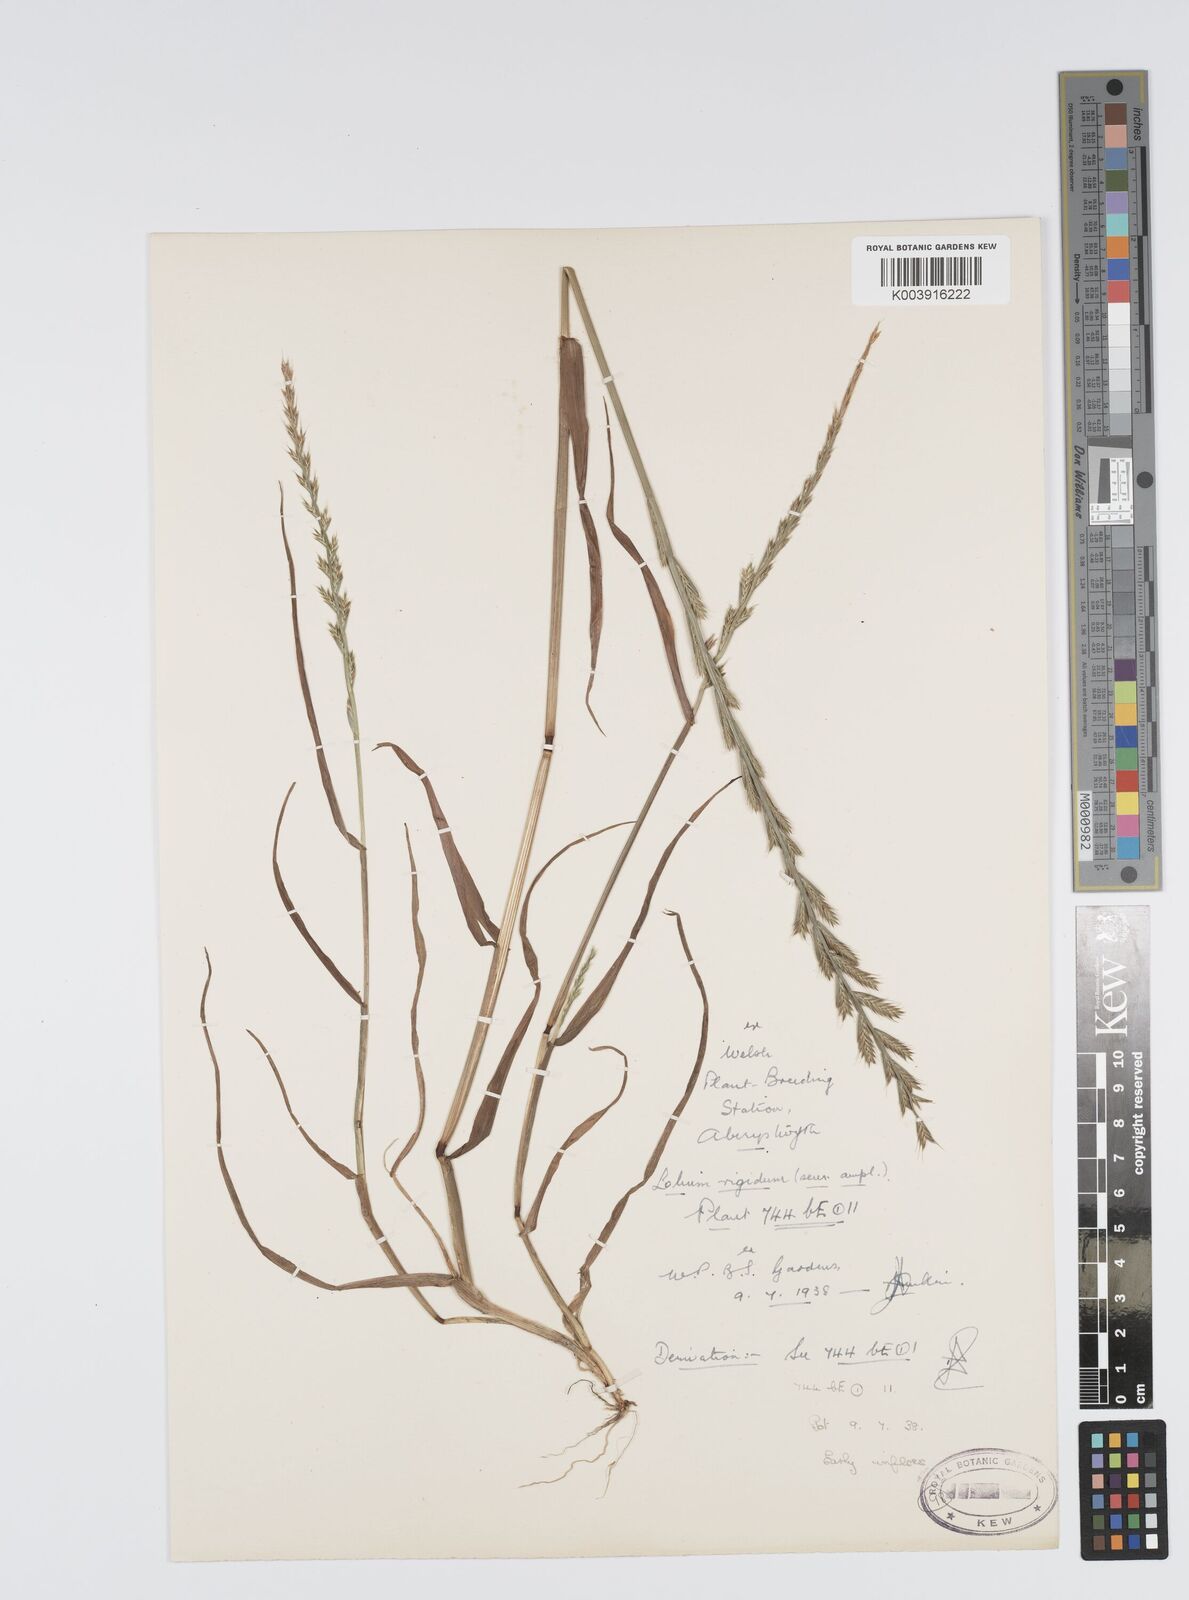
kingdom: Plantae
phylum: Tracheophyta
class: Liliopsida
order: Poales
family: Poaceae
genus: Lolium
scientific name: Lolium rigidum
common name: Wimmera ryegrass
